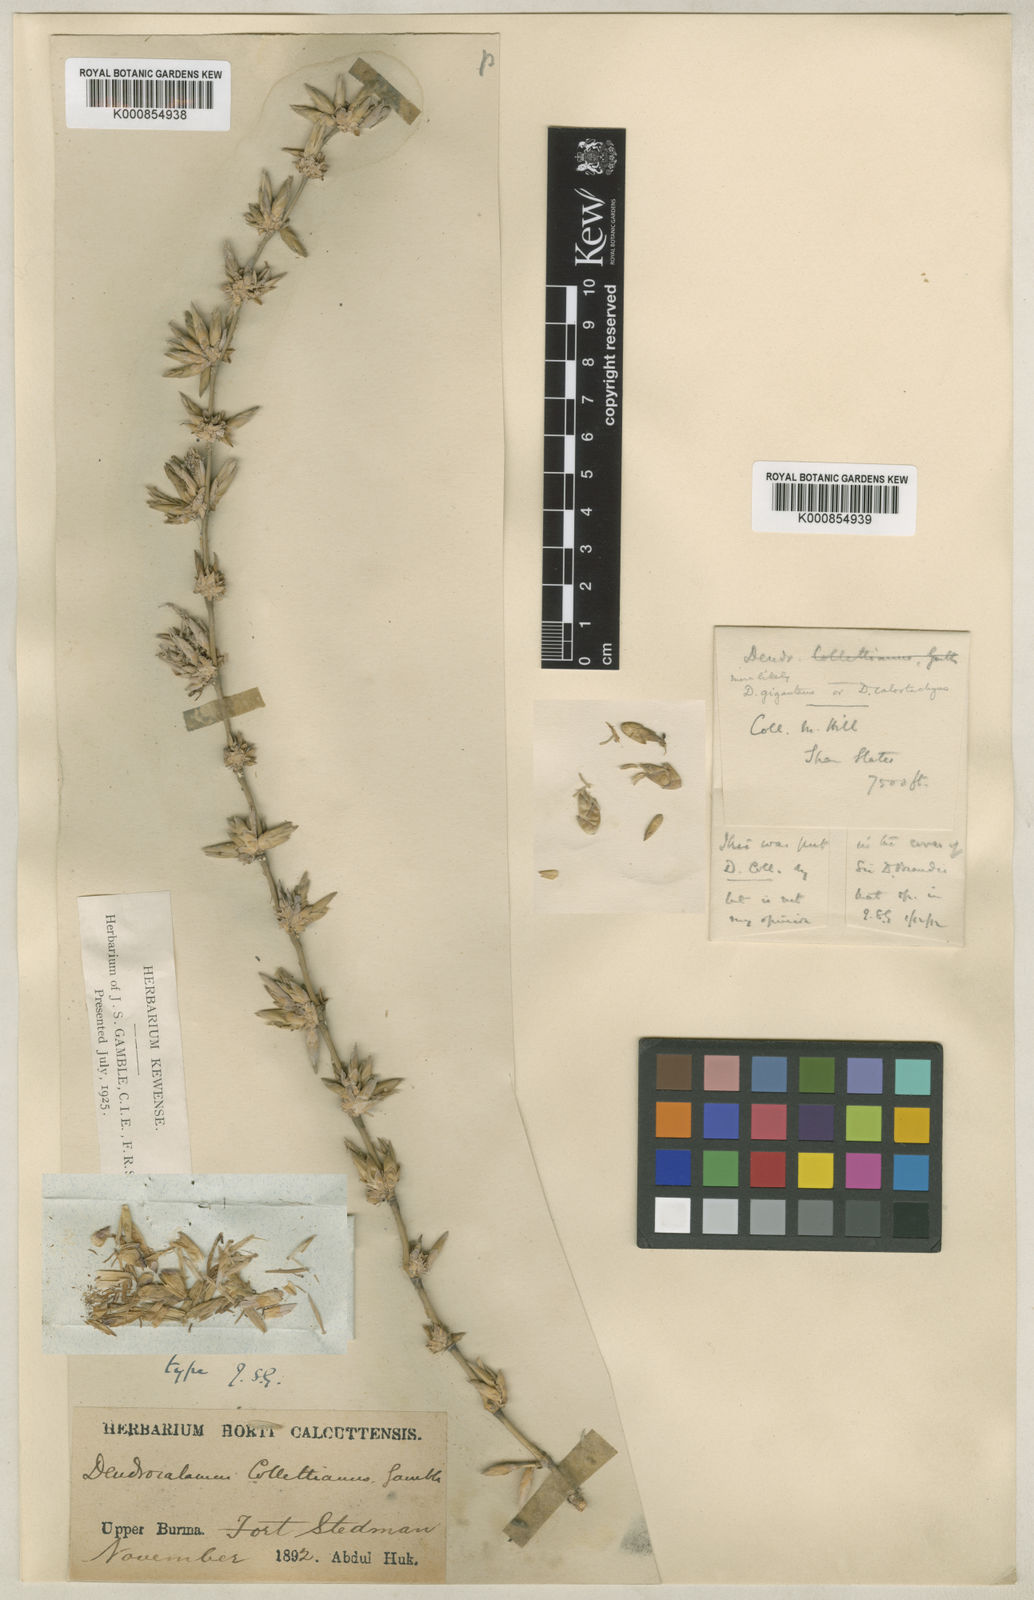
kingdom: Plantae
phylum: Tracheophyta
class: Liliopsida
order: Poales
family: Poaceae
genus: Dendrocalamus
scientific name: Dendrocalamus collettianus
